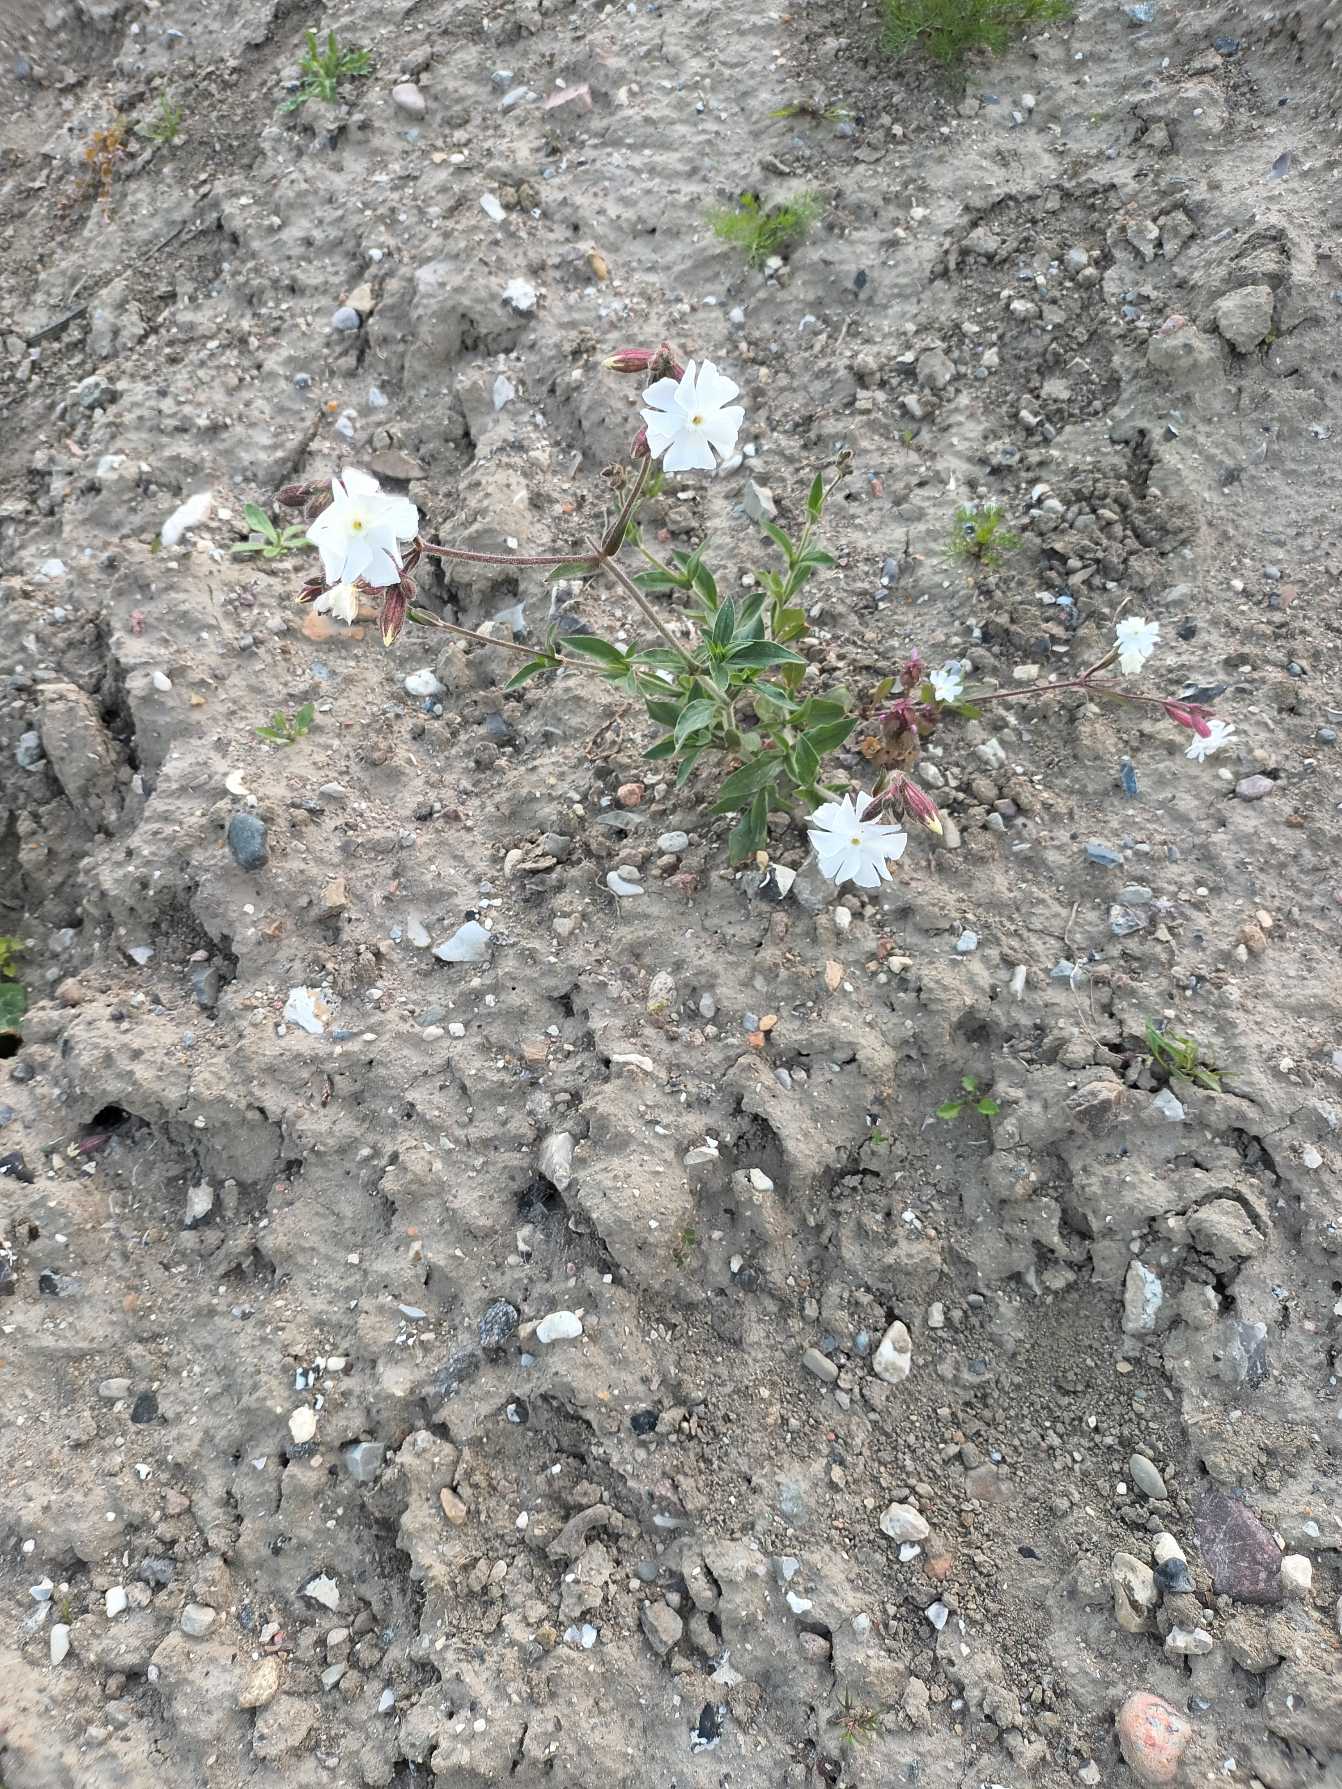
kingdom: Plantae
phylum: Tracheophyta
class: Magnoliopsida
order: Caryophyllales
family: Caryophyllaceae
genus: Silene
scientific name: Silene latifolia
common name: Aftenpragtstjerne
